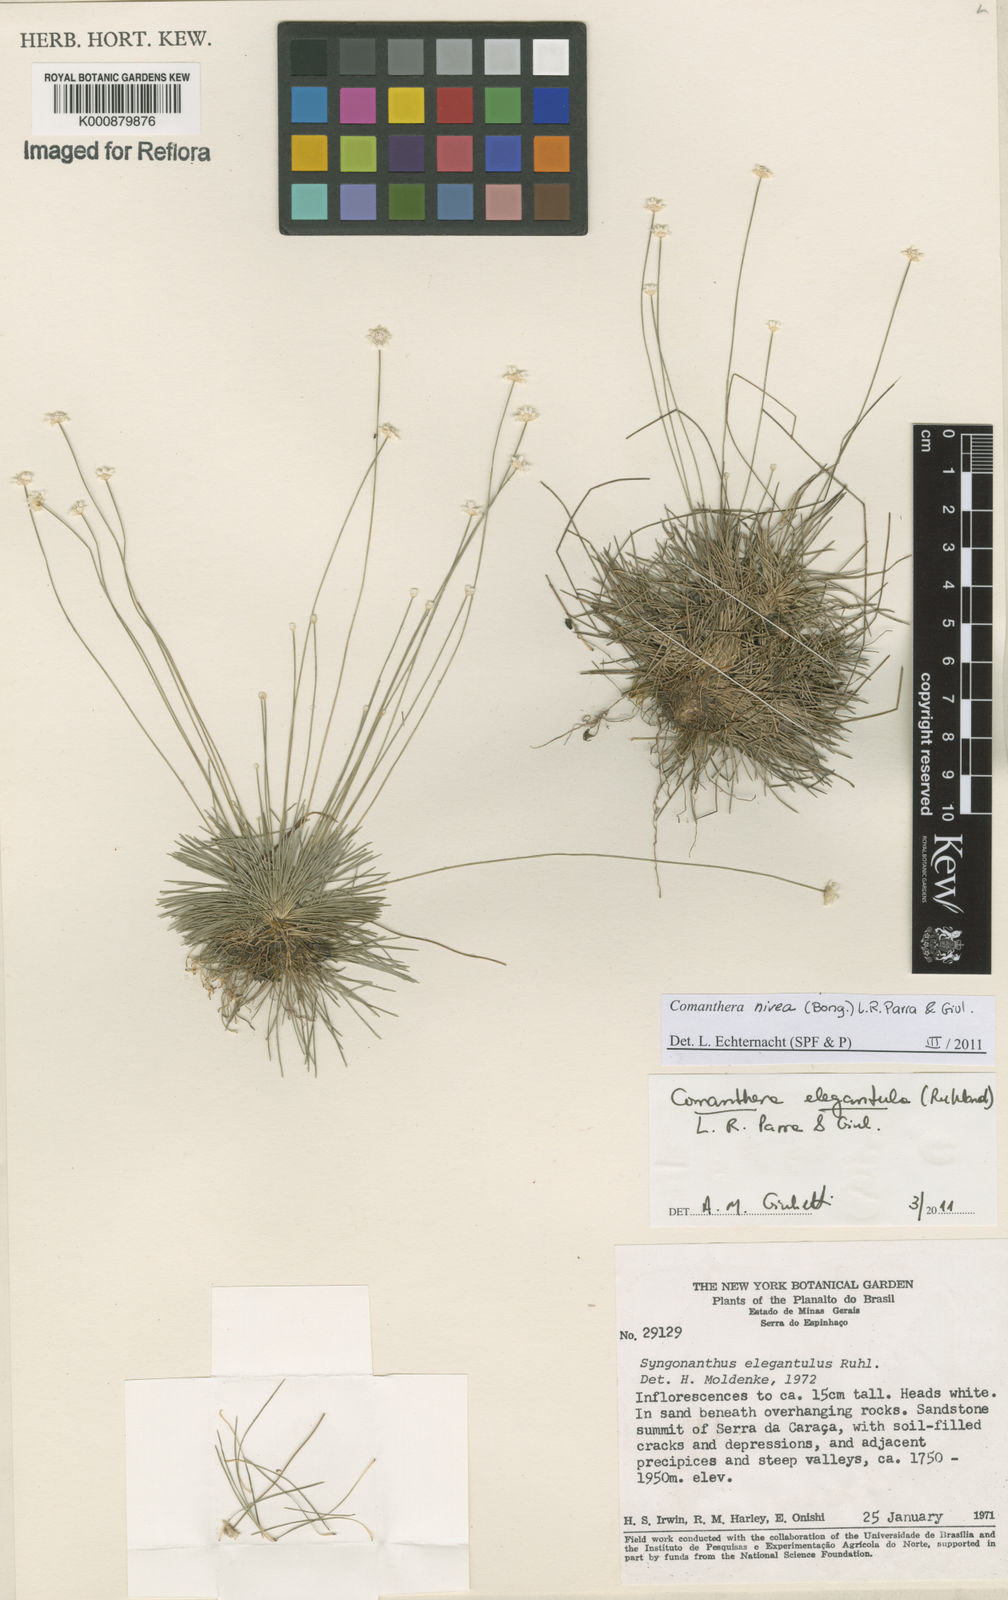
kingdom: Plantae
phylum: Tracheophyta
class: Liliopsida
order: Poales
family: Eriocaulaceae
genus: Comanthera
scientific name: Comanthera nivea
